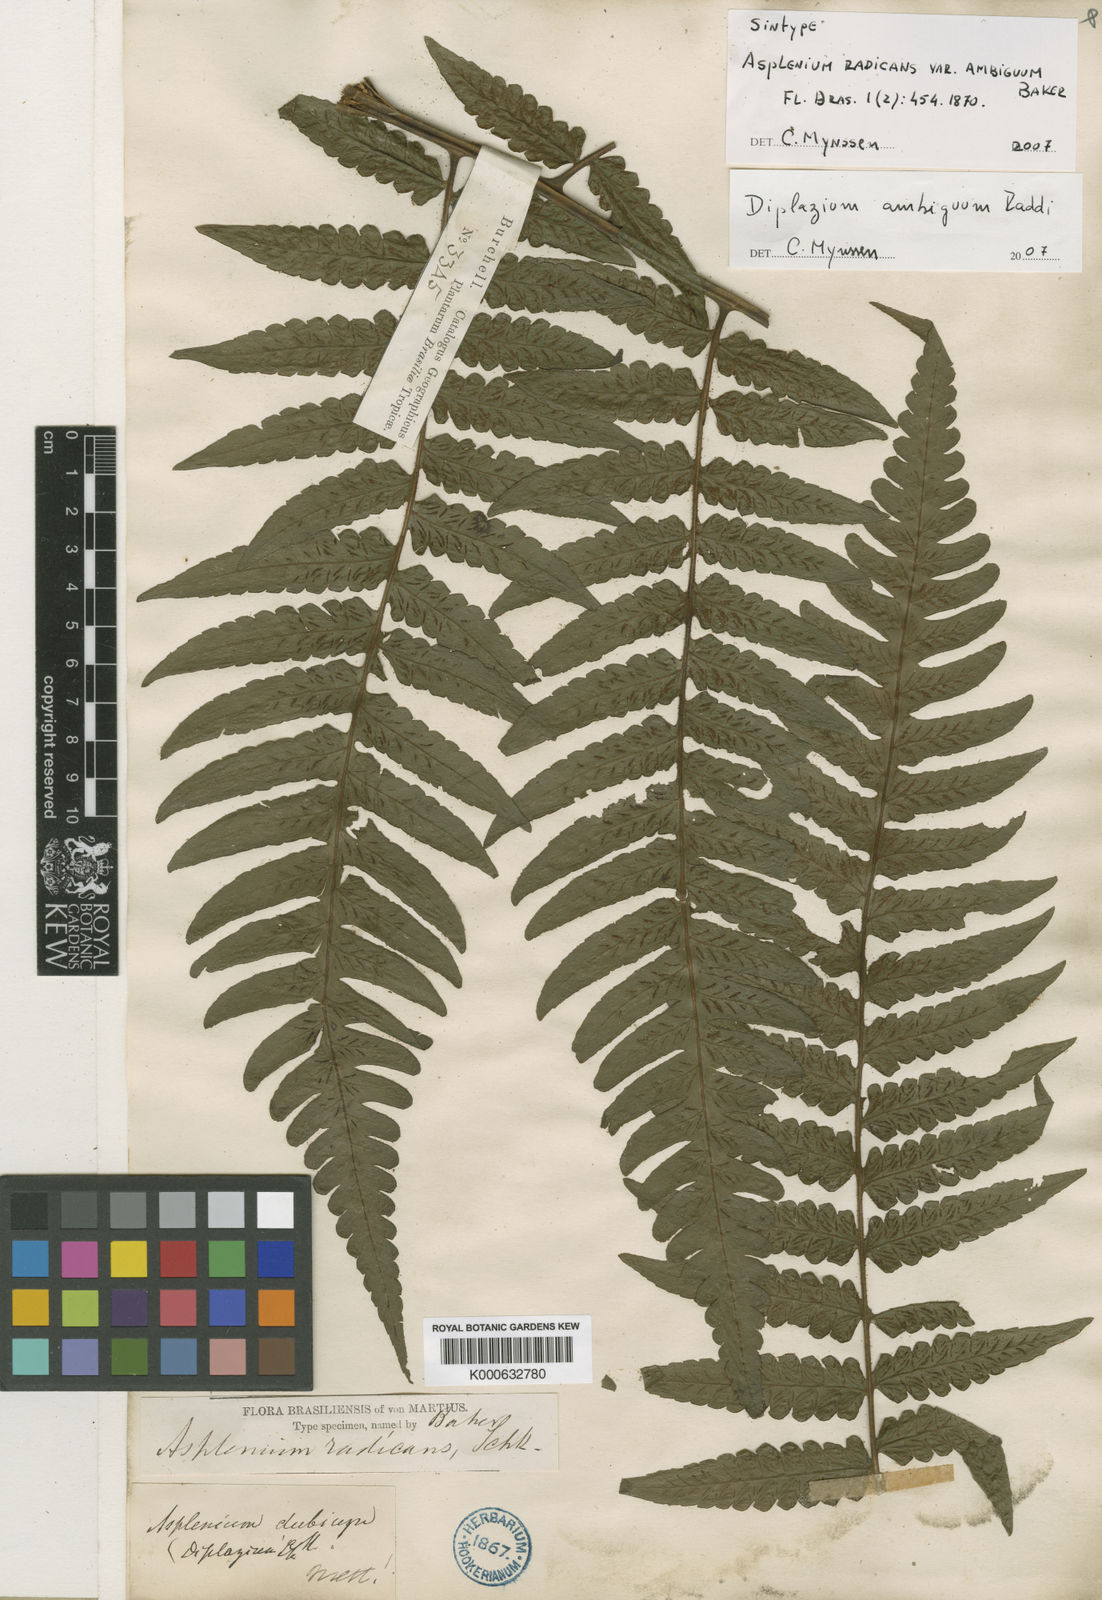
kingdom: Plantae
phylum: Tracheophyta
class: Polypodiopsida
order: Polypodiales
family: Athyriaceae
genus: Diplazium
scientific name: Diplazium ambiguum
